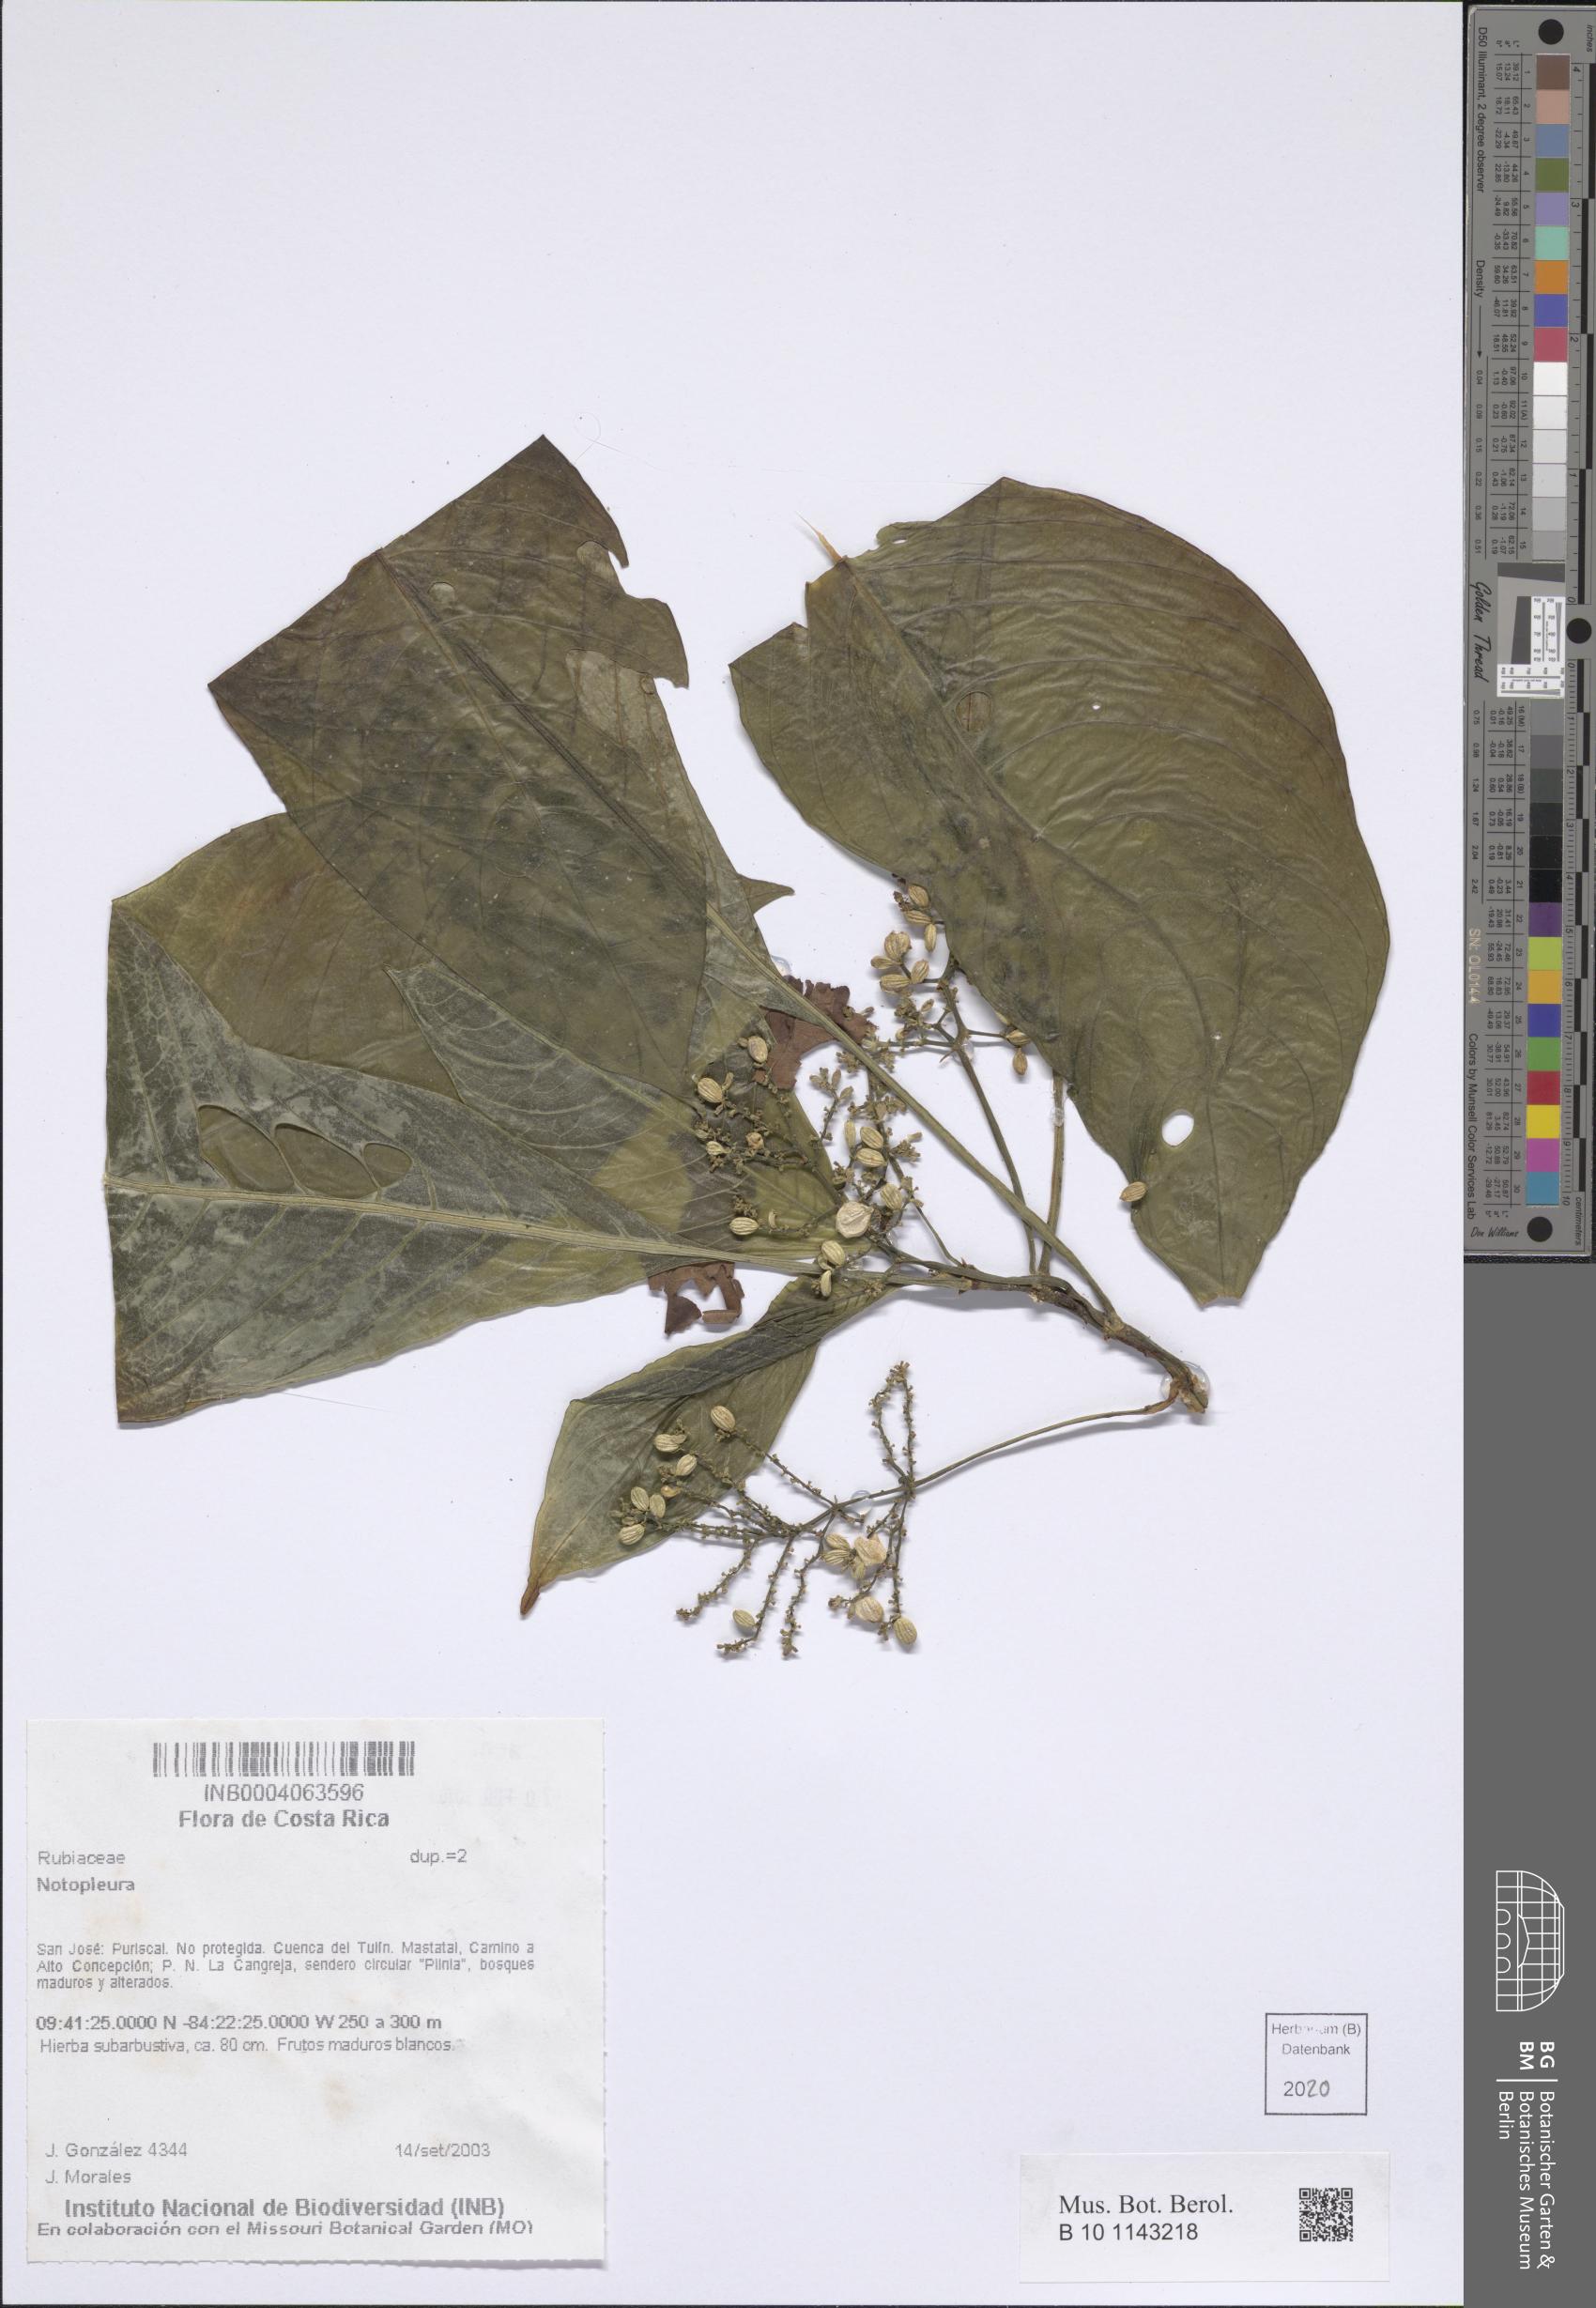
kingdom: Plantae
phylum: Tracheophyta
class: Magnoliopsida
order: Gentianales
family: Rubiaceae
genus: Notopleura
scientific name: Notopleura
